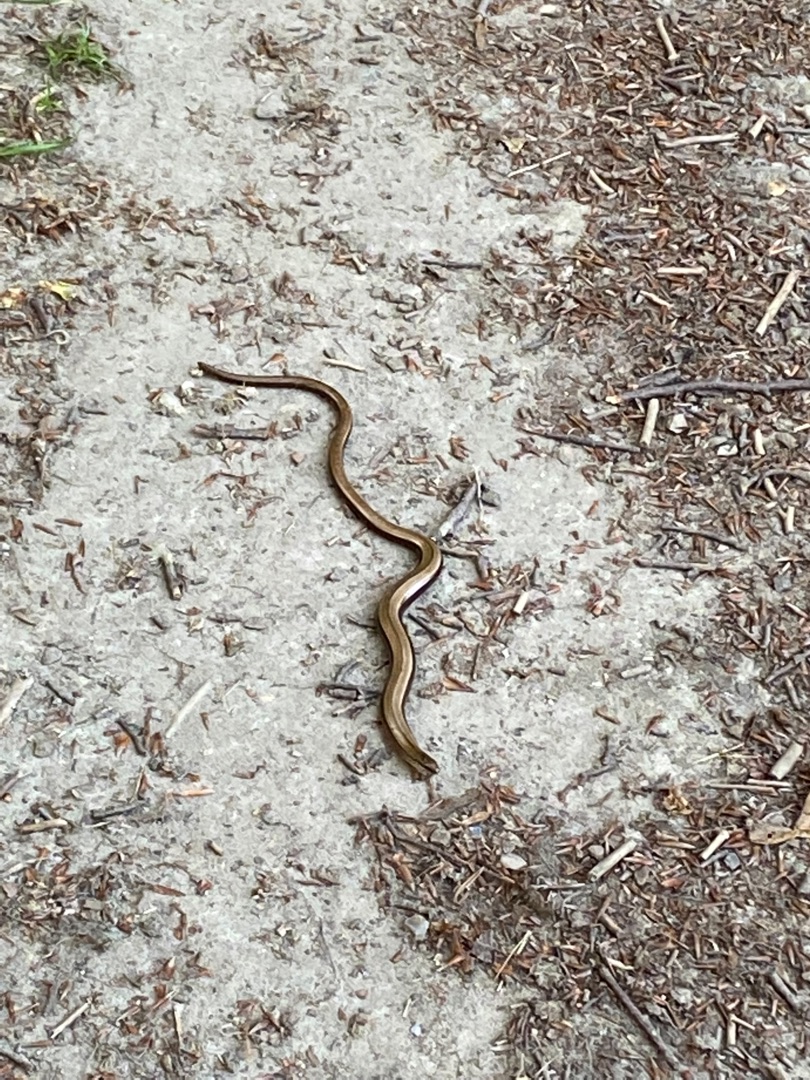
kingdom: Animalia
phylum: Chordata
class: Squamata
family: Anguidae
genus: Anguis
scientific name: Anguis fragilis
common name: Stålorm
